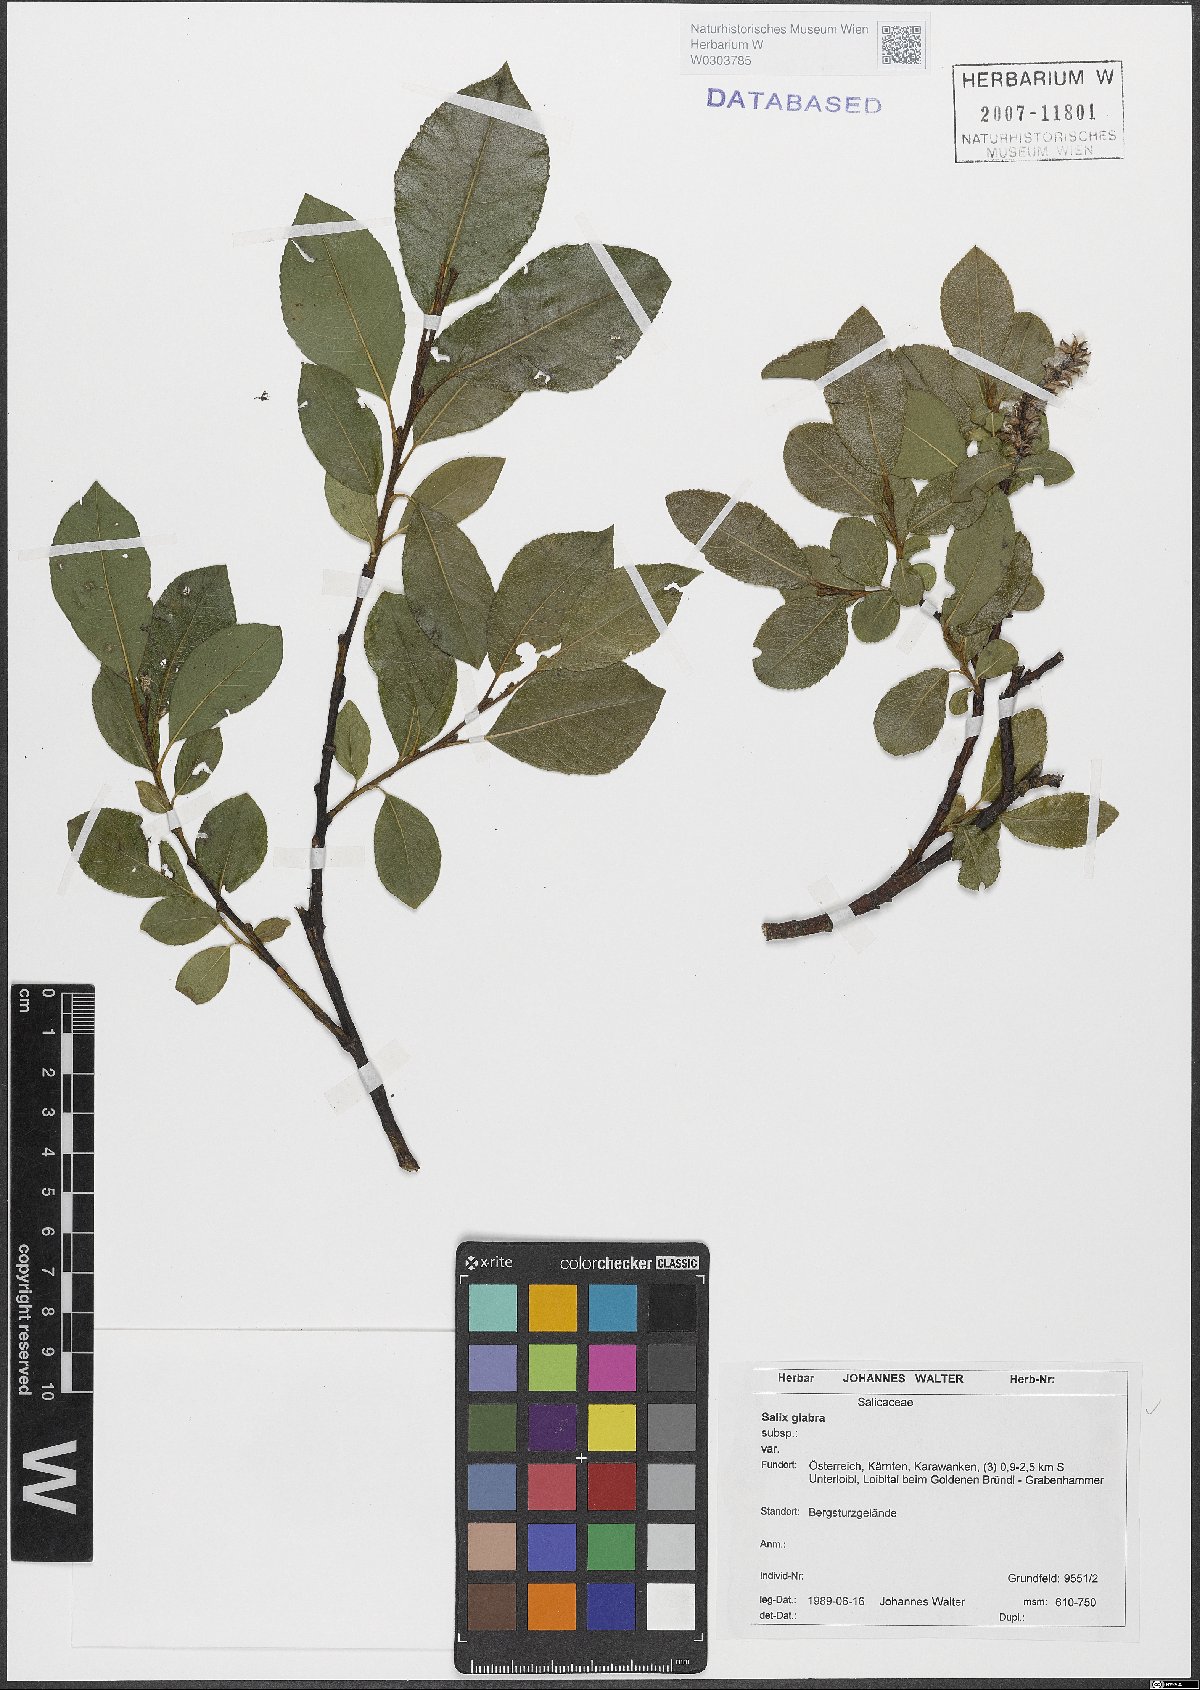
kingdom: Plantae
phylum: Tracheophyta
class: Magnoliopsida
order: Malpighiales
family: Salicaceae
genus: Salix
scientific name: Salix glabra
